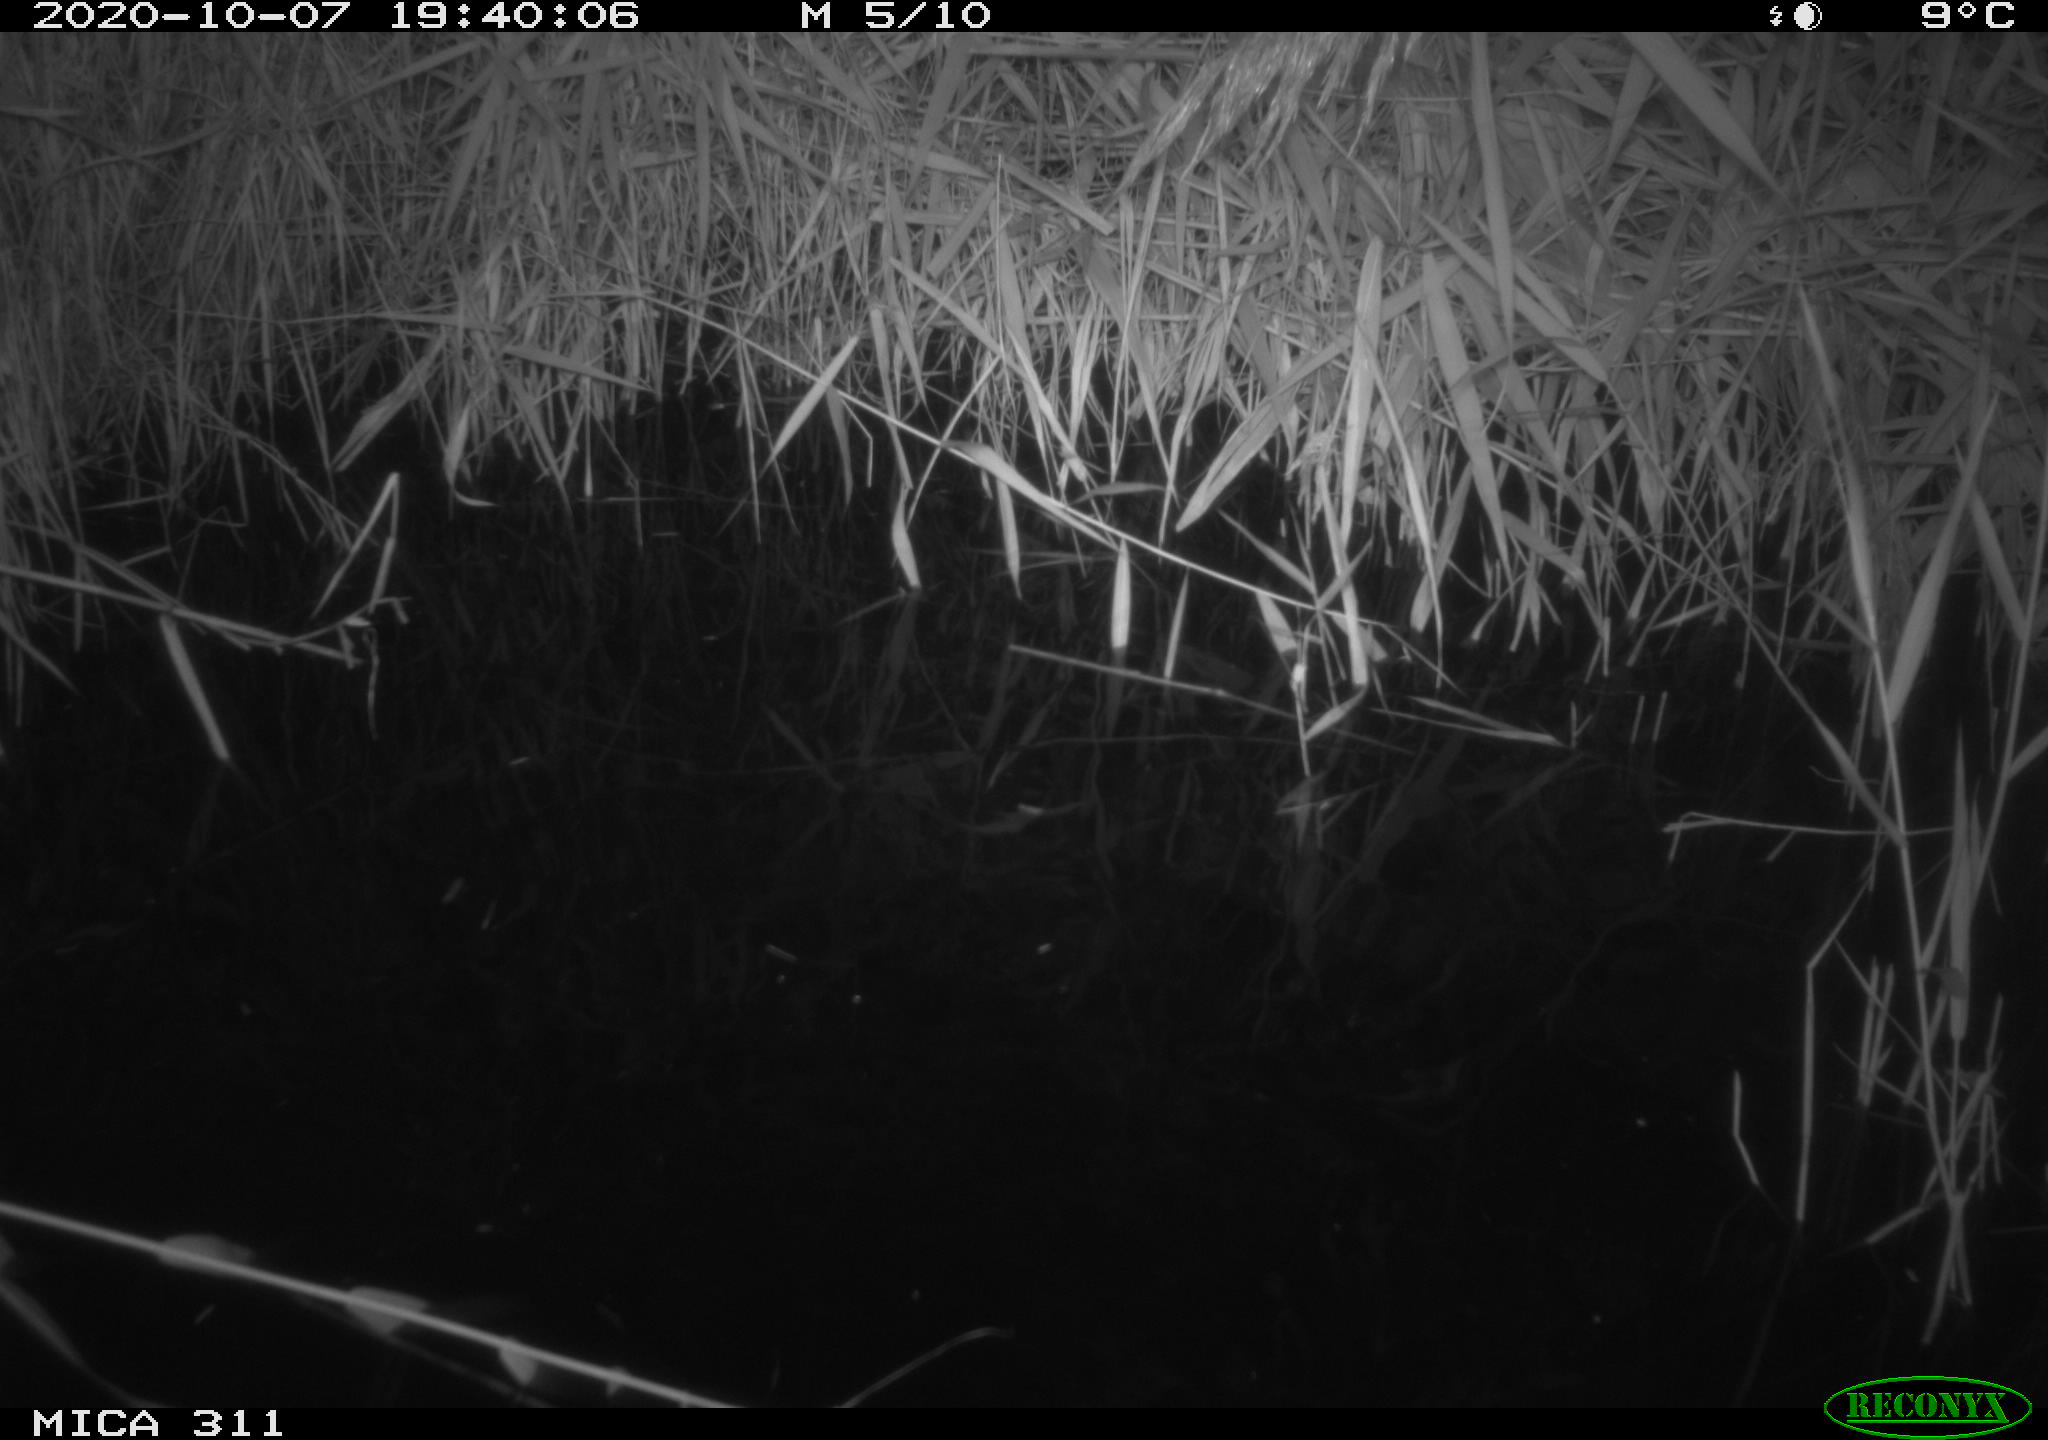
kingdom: Animalia
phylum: Chordata
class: Mammalia
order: Rodentia
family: Muridae
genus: Rattus
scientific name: Rattus norvegicus
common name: Brown rat
